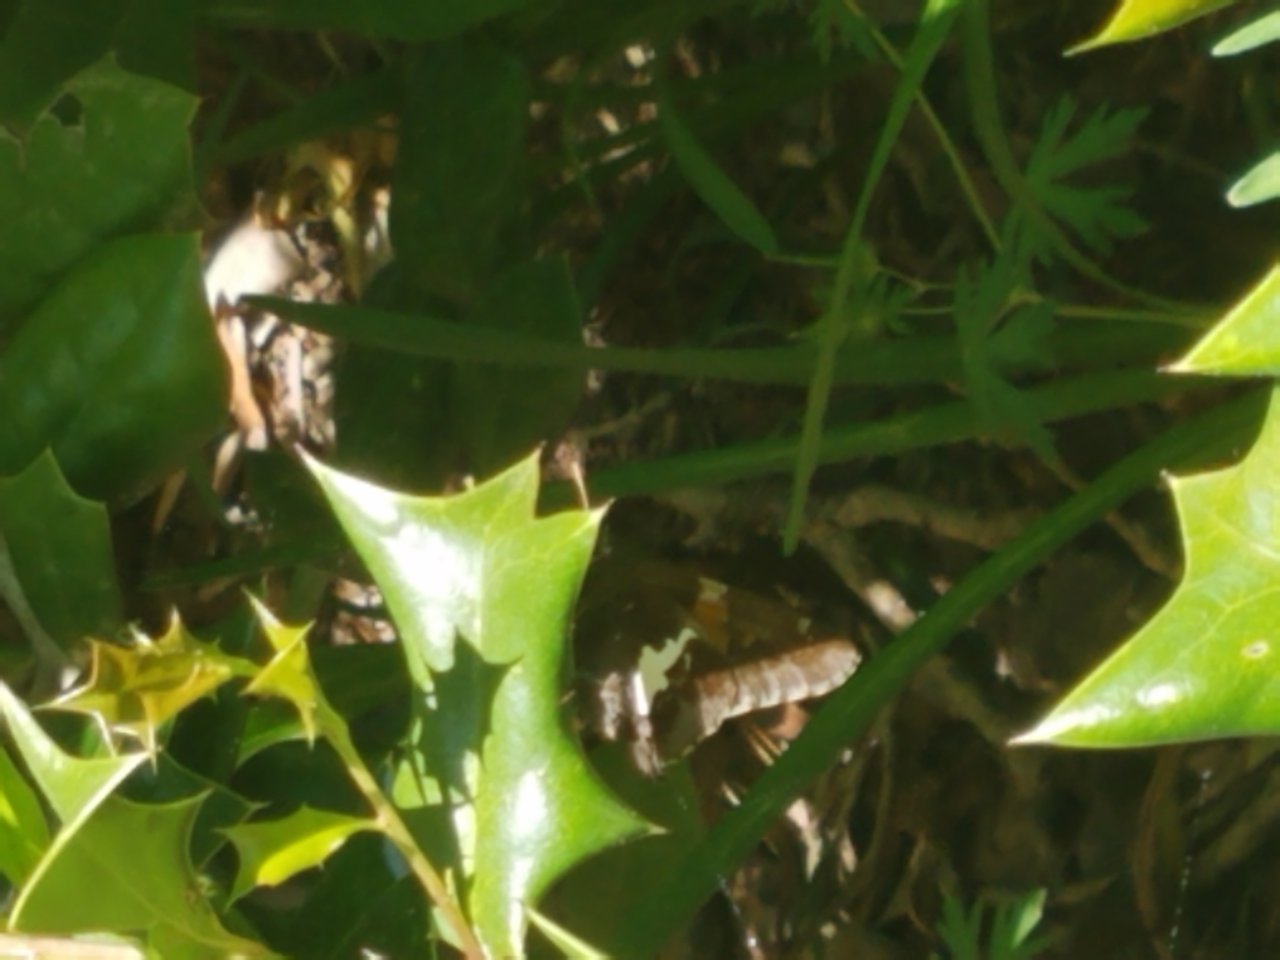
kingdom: Animalia
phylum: Arthropoda
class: Insecta
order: Lepidoptera
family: Hesperiidae
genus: Epargyreus
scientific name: Epargyreus clarus
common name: Silver-spotted Skipper
